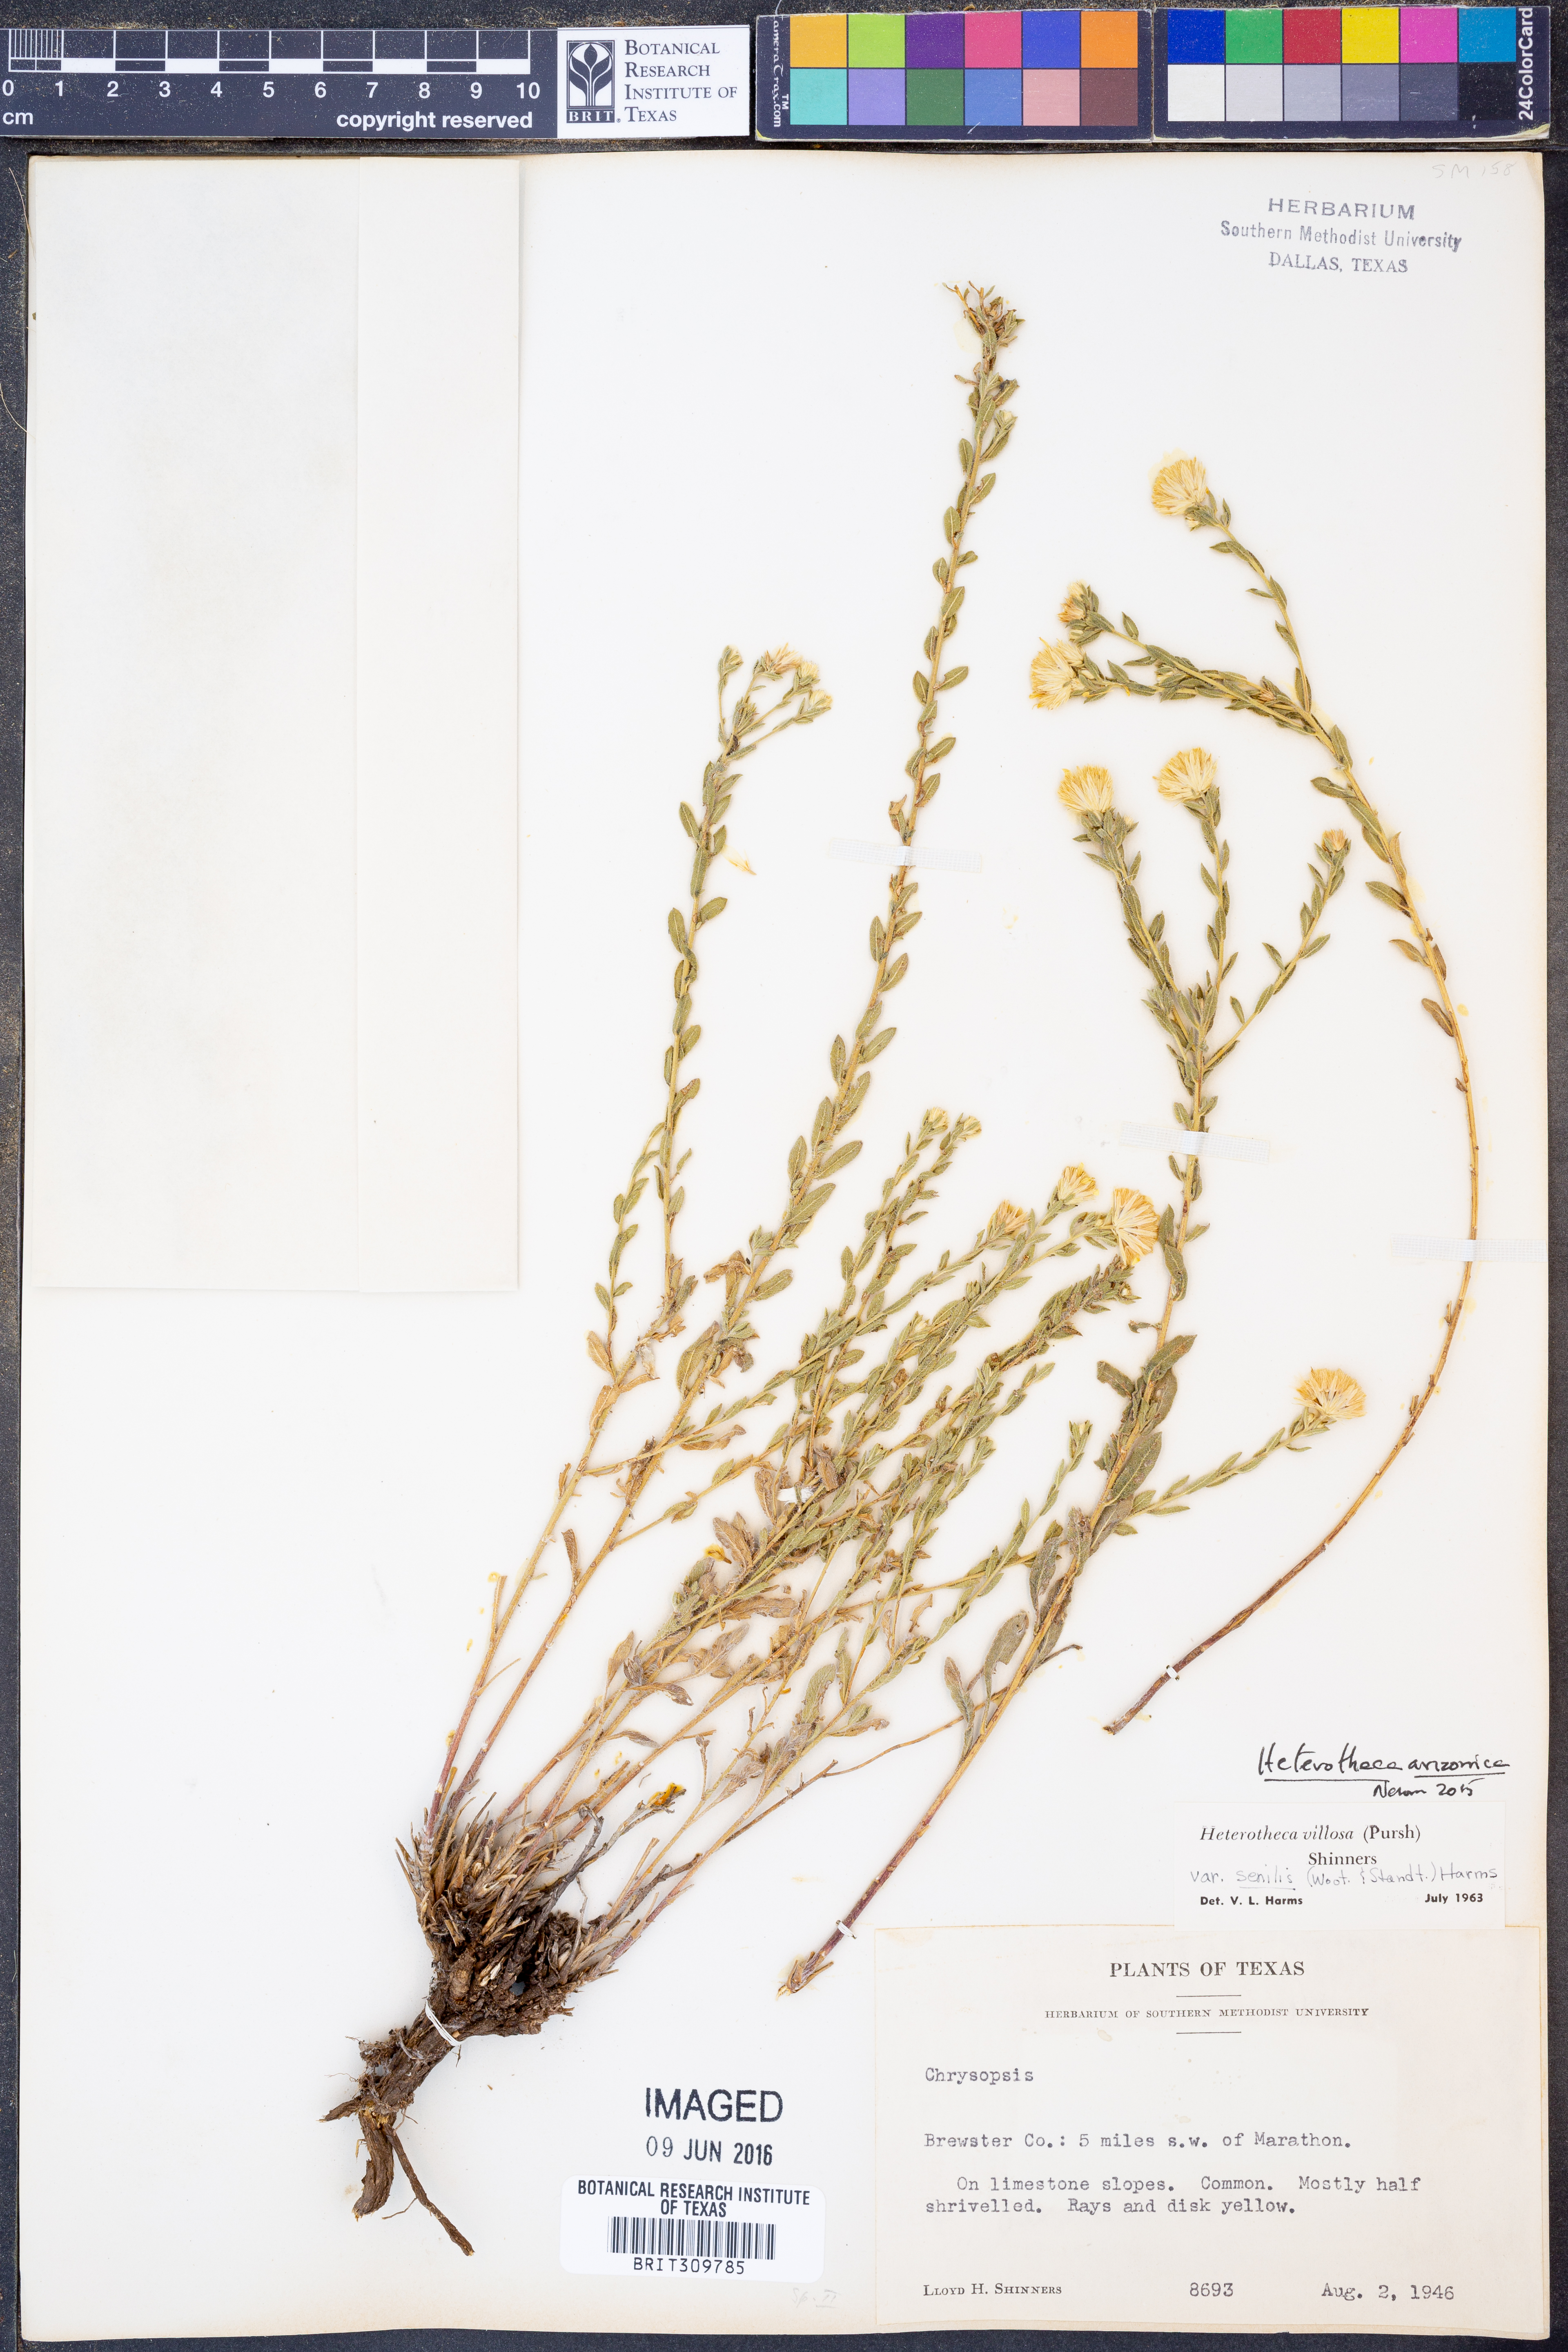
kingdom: Plantae
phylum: Tracheophyta
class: Magnoliopsida
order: Asterales
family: Asteraceae
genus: Heterotheca
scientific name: Heterotheca arizonica
